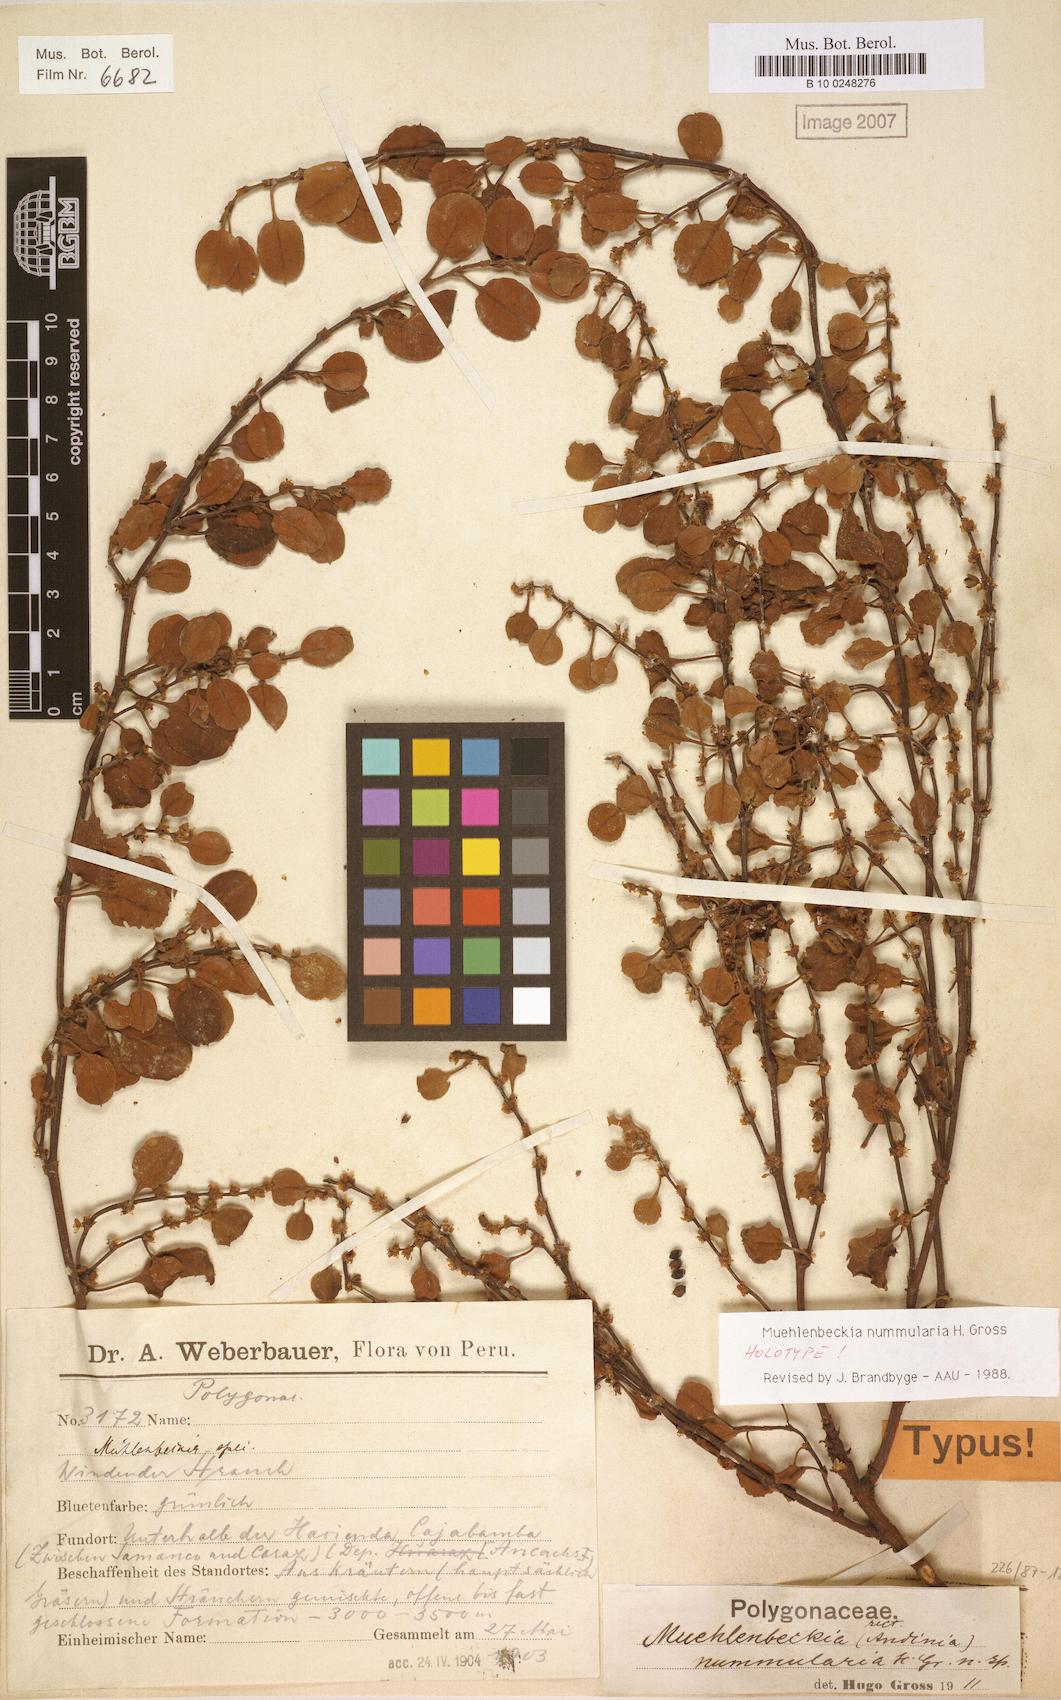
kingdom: Plantae
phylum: Tracheophyta
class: Magnoliopsida
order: Caryophyllales
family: Polygonaceae
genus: Muehlenbeckia
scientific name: Muehlenbeckia nummularia
